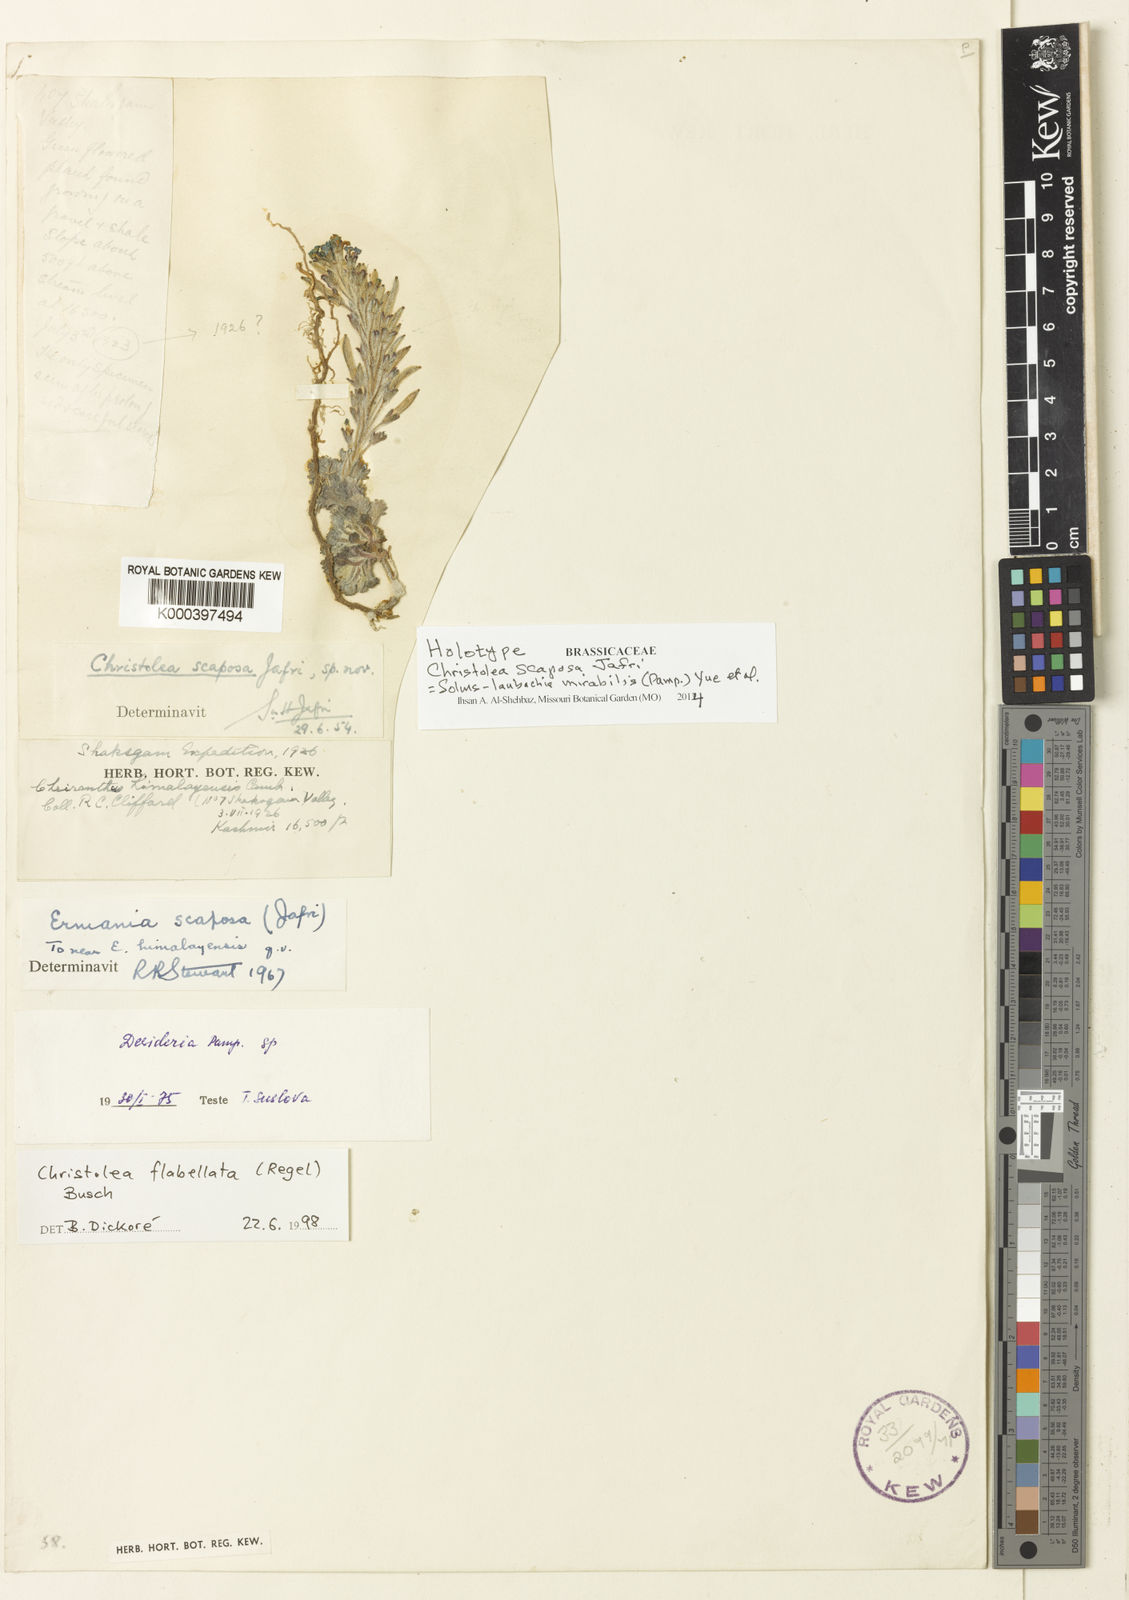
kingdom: Plantae
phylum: Tracheophyta
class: Magnoliopsida
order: Brassicales
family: Brassicaceae
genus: Solms-laubachia
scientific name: Solms-laubachia mirabilis
